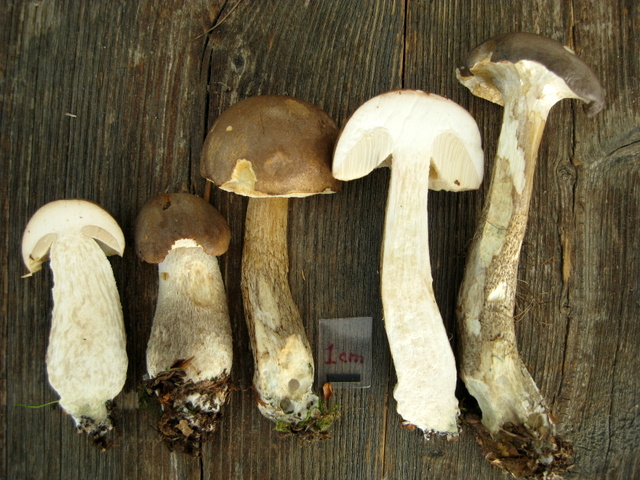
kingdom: Fungi
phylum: Basidiomycota
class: Agaricomycetes
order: Boletales
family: Boletaceae
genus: Leccinum
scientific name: Leccinum cyaneobasileucum
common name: almindelig skælrørhat
